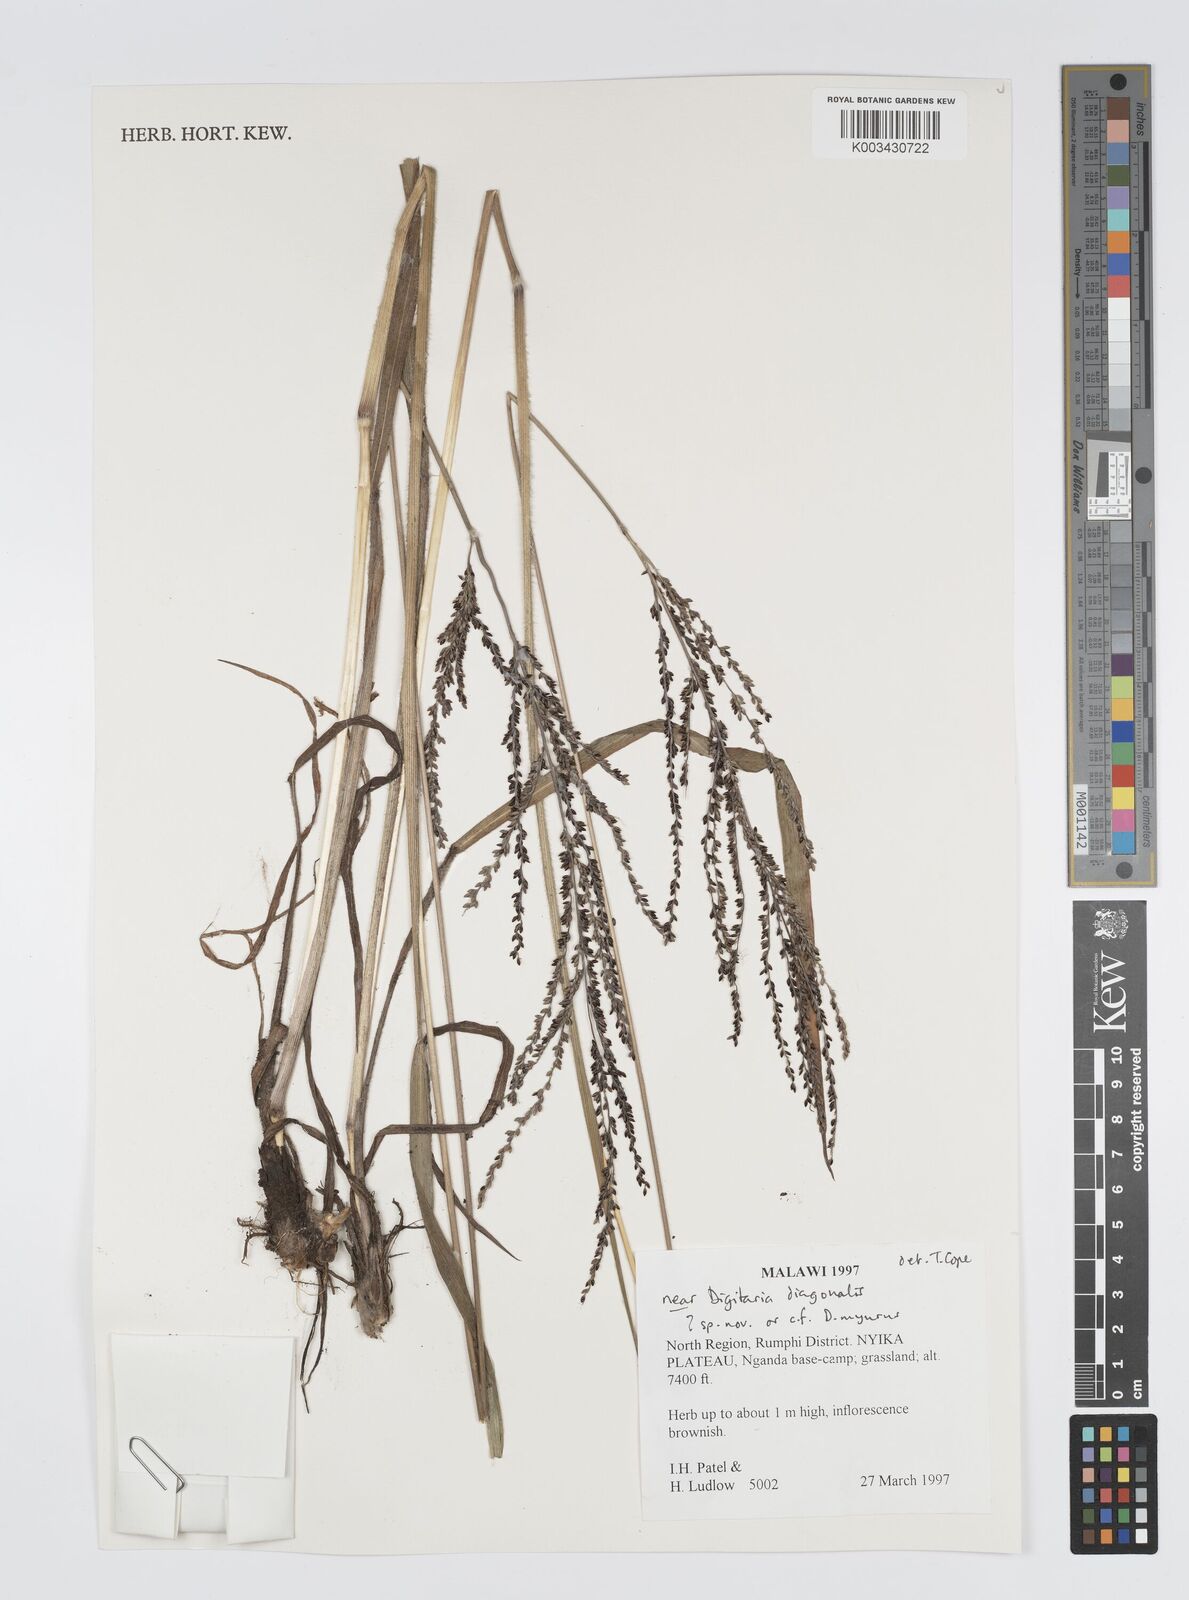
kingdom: Plantae
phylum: Tracheophyta
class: Liliopsida
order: Poales
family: Poaceae
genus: Digitaria
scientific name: Digitaria diagonalis
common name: Brown-seed finger grass
